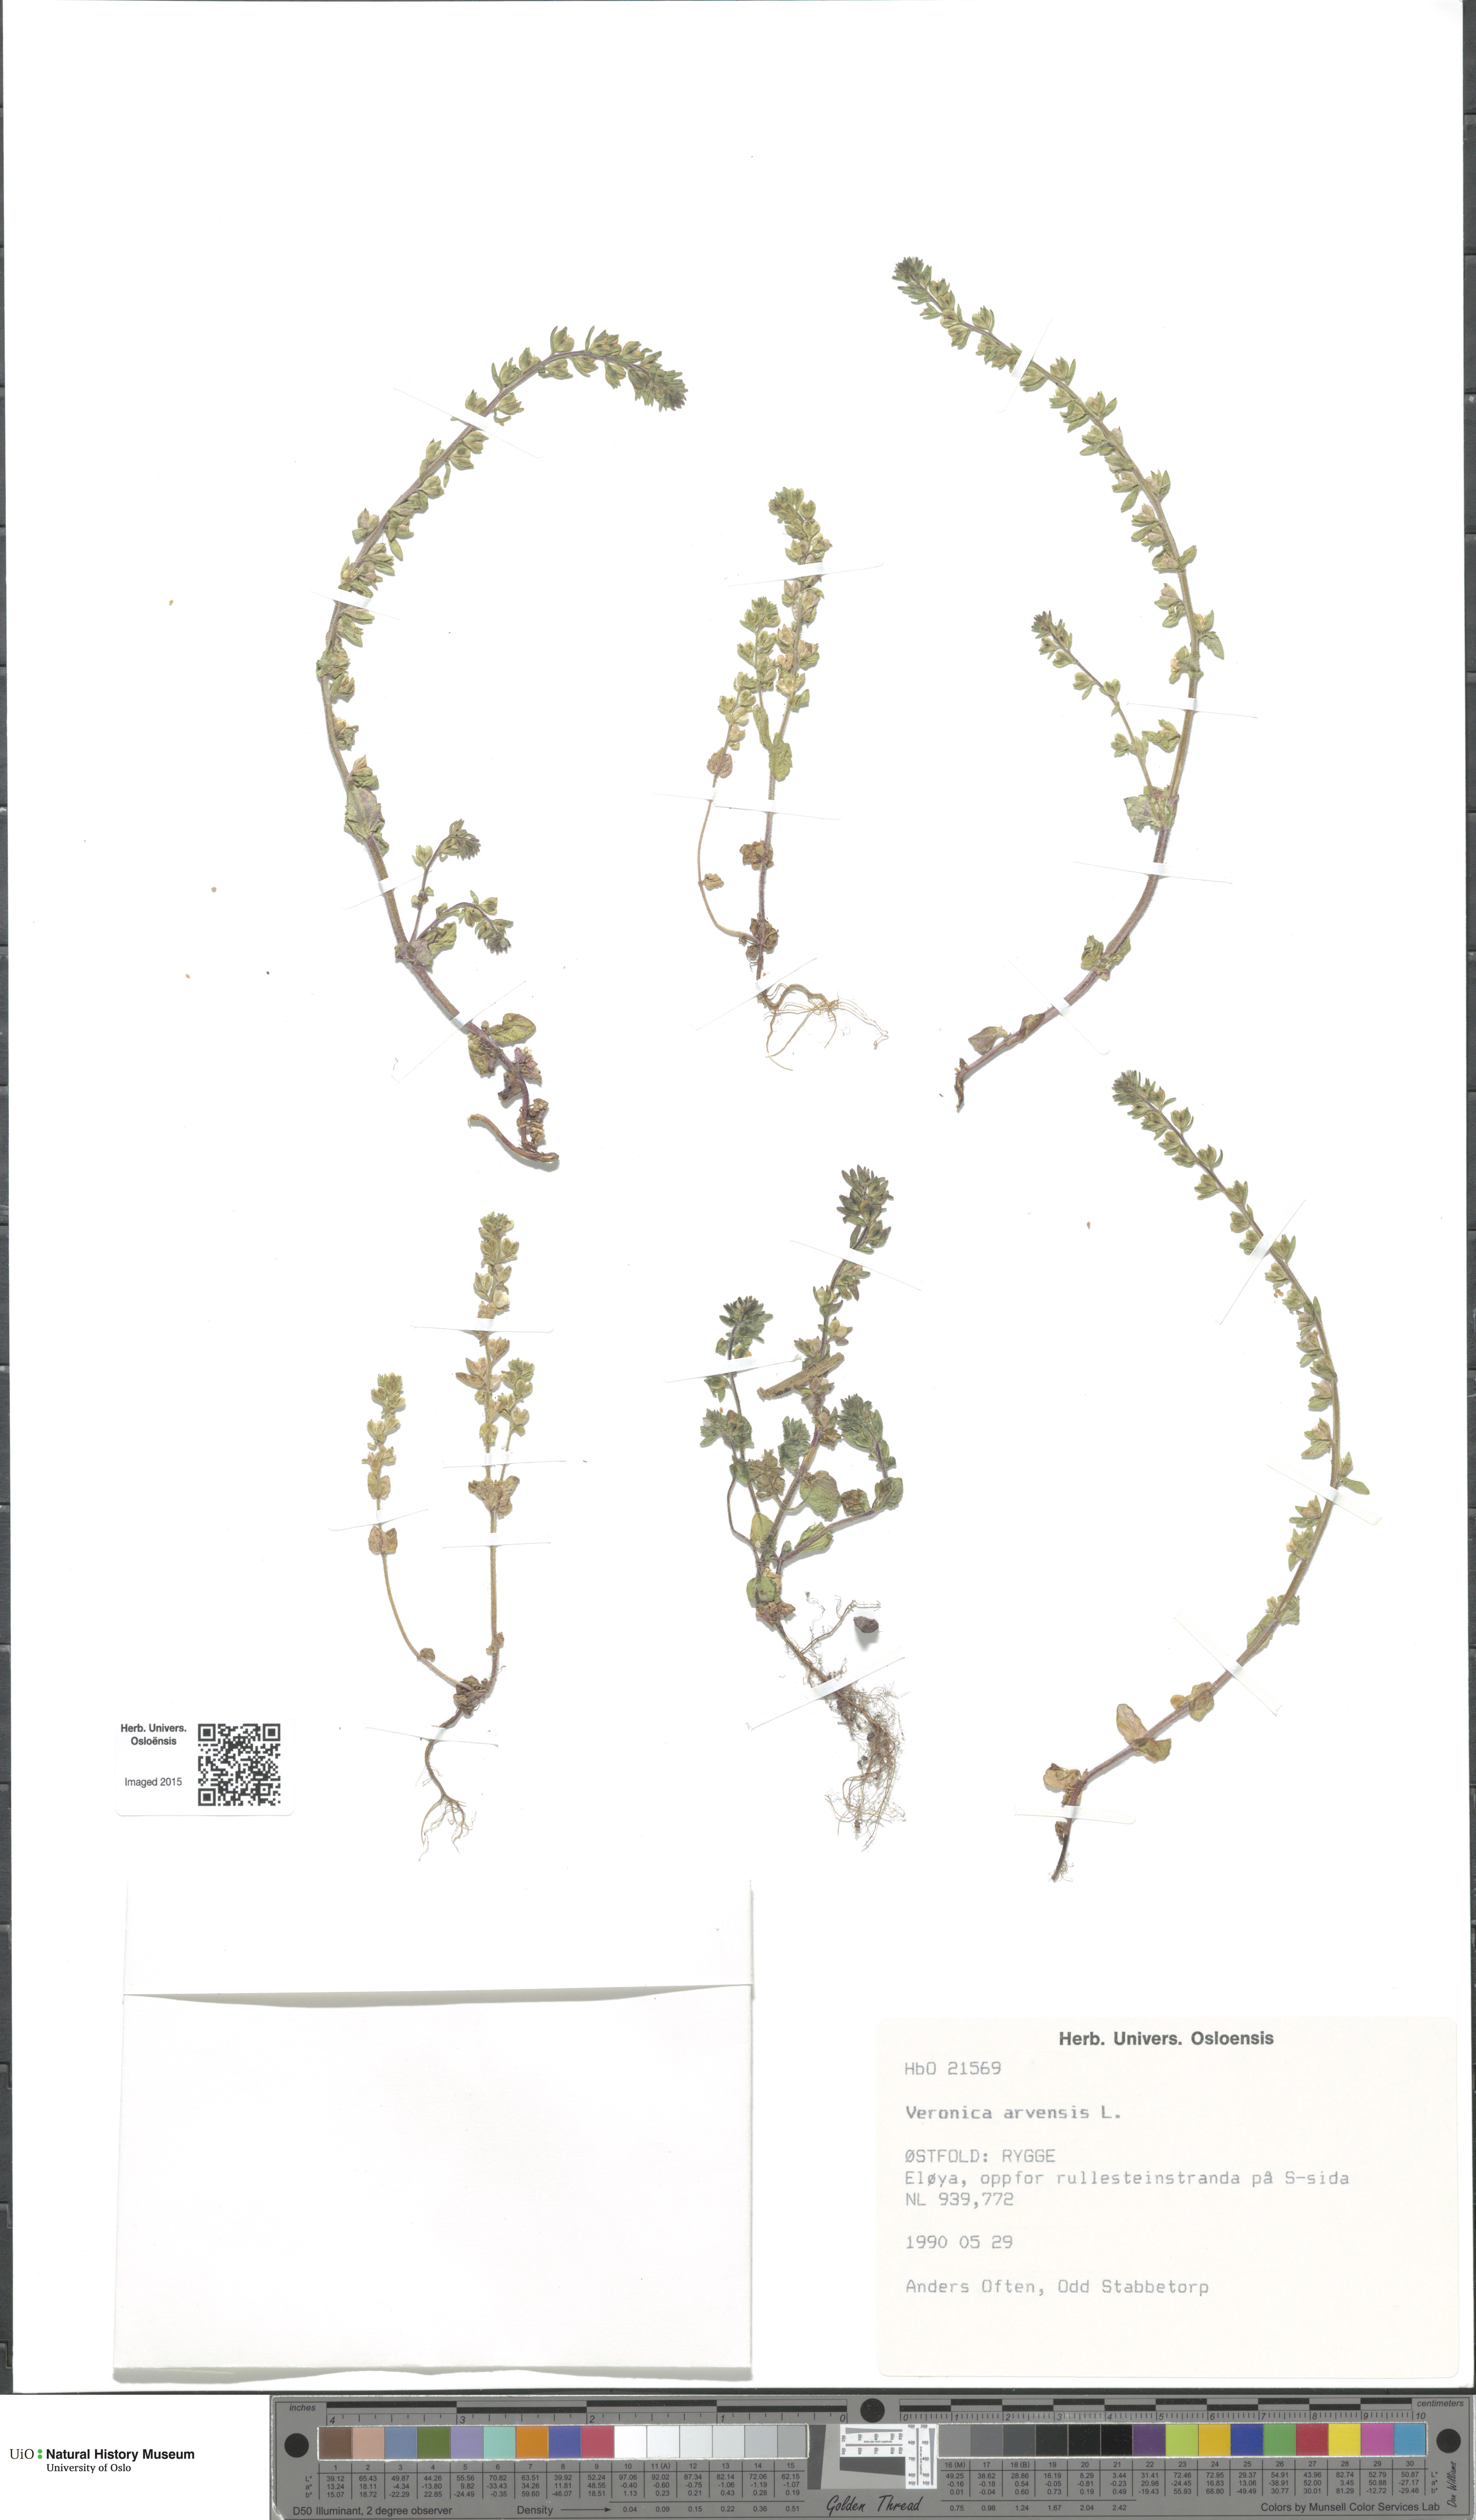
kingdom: Plantae
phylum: Tracheophyta
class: Magnoliopsida
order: Lamiales
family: Plantaginaceae
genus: Veronica
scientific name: Veronica arvensis
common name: Corn speedwell
